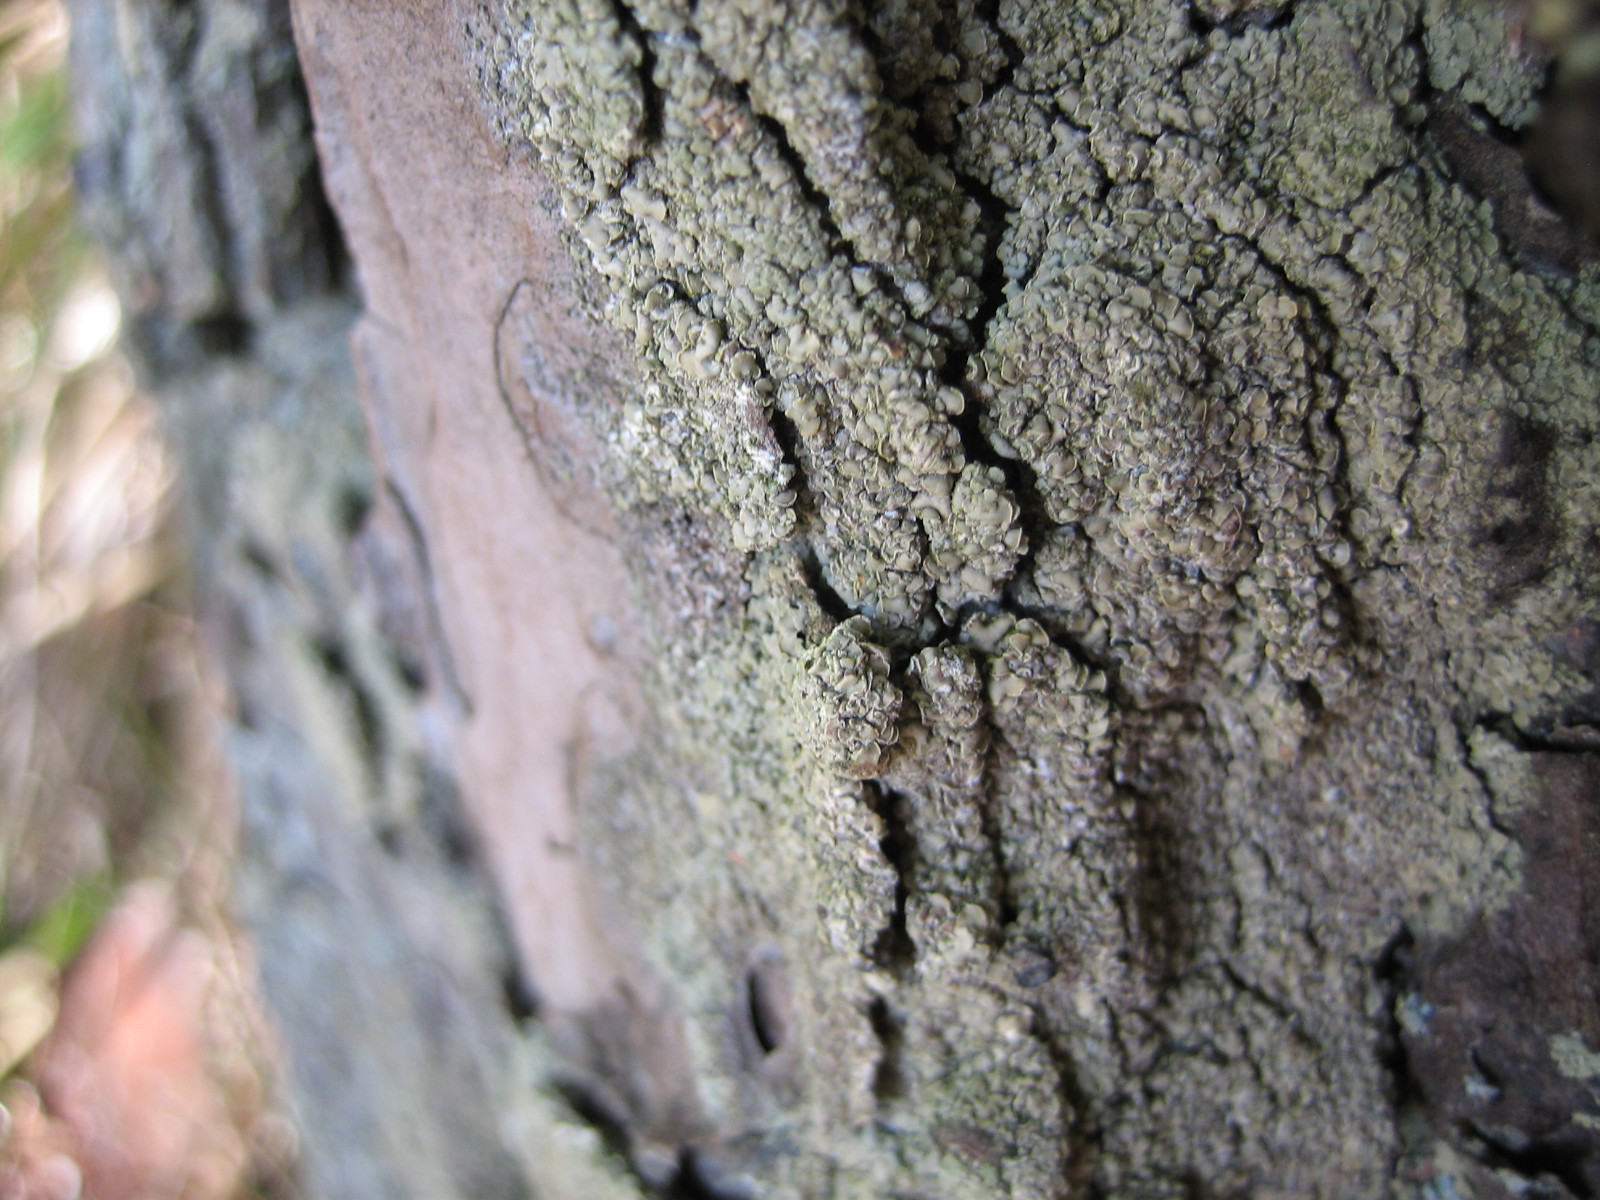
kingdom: Fungi
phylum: Ascomycota
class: Lecanoromycetes
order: Umbilicariales
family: Ophioparmaceae
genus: Hypocenomyce
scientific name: Hypocenomyce scalaris
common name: småskællet muslinglav
